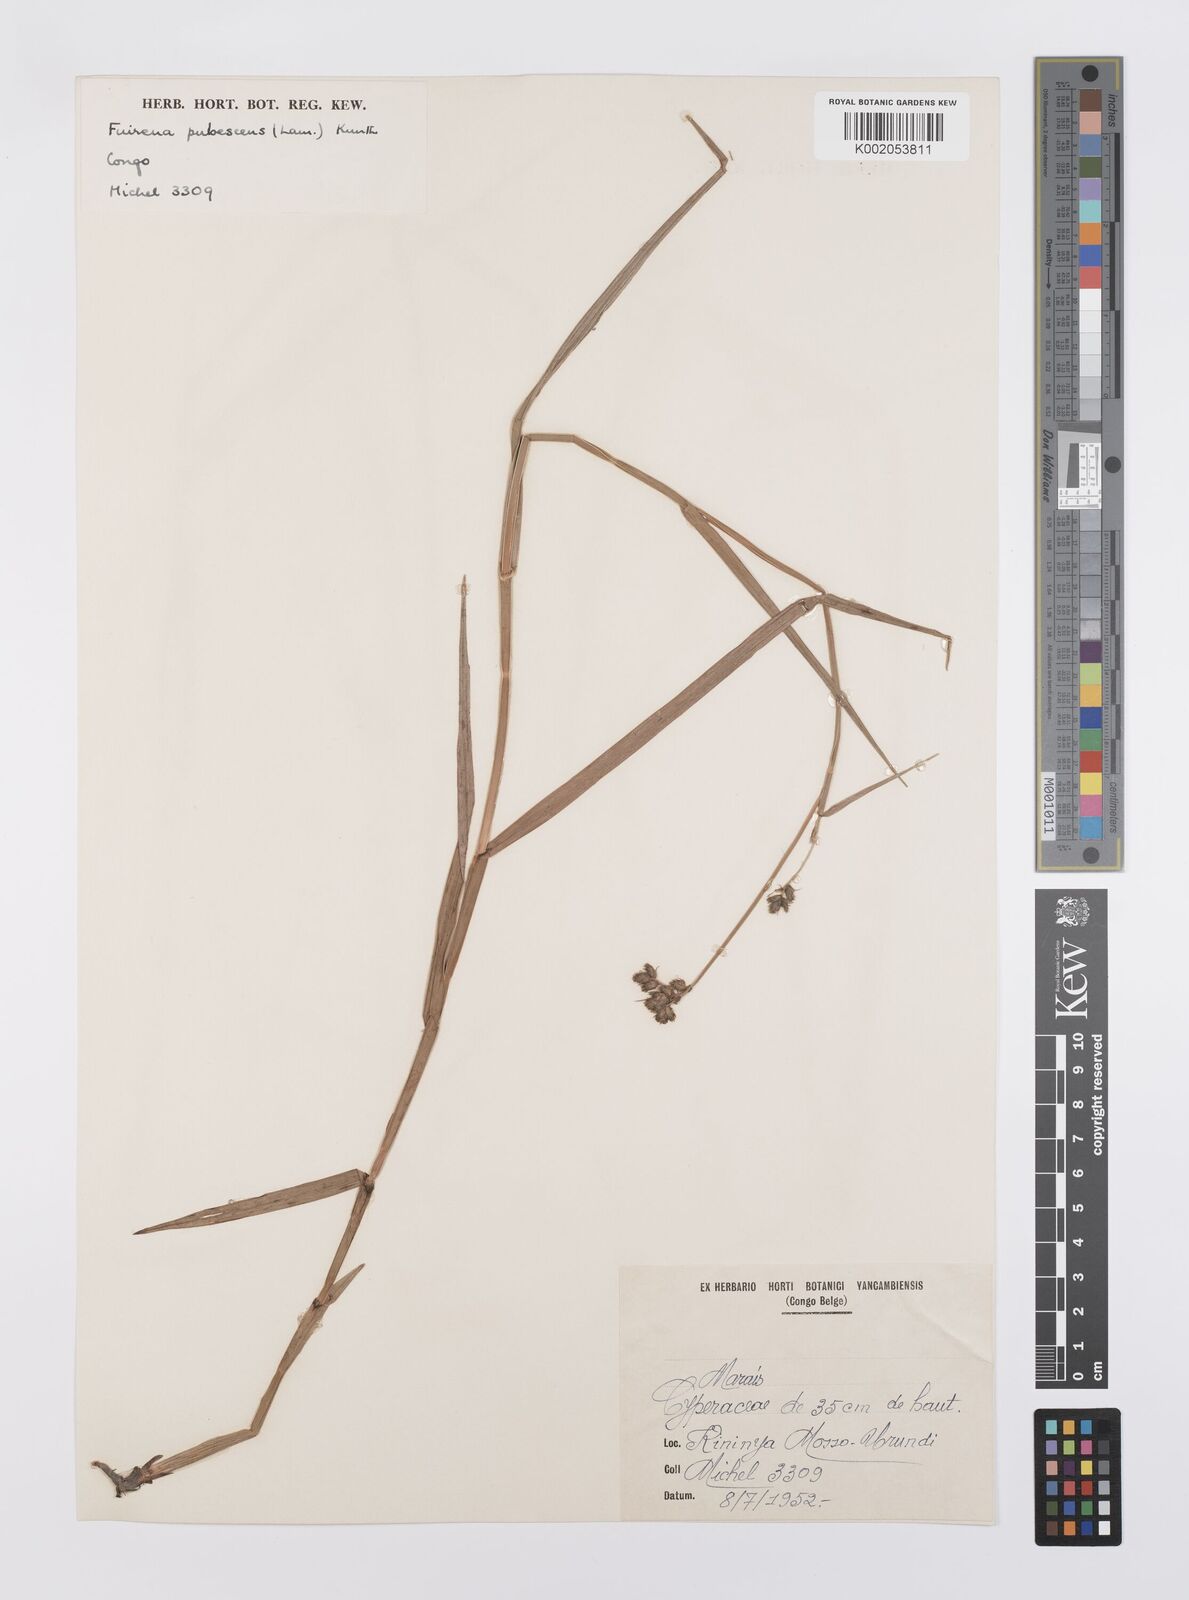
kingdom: Plantae
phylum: Tracheophyta
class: Liliopsida
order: Poales
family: Cyperaceae
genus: Fuirena
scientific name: Fuirena pubescens
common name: Hairy sedge
